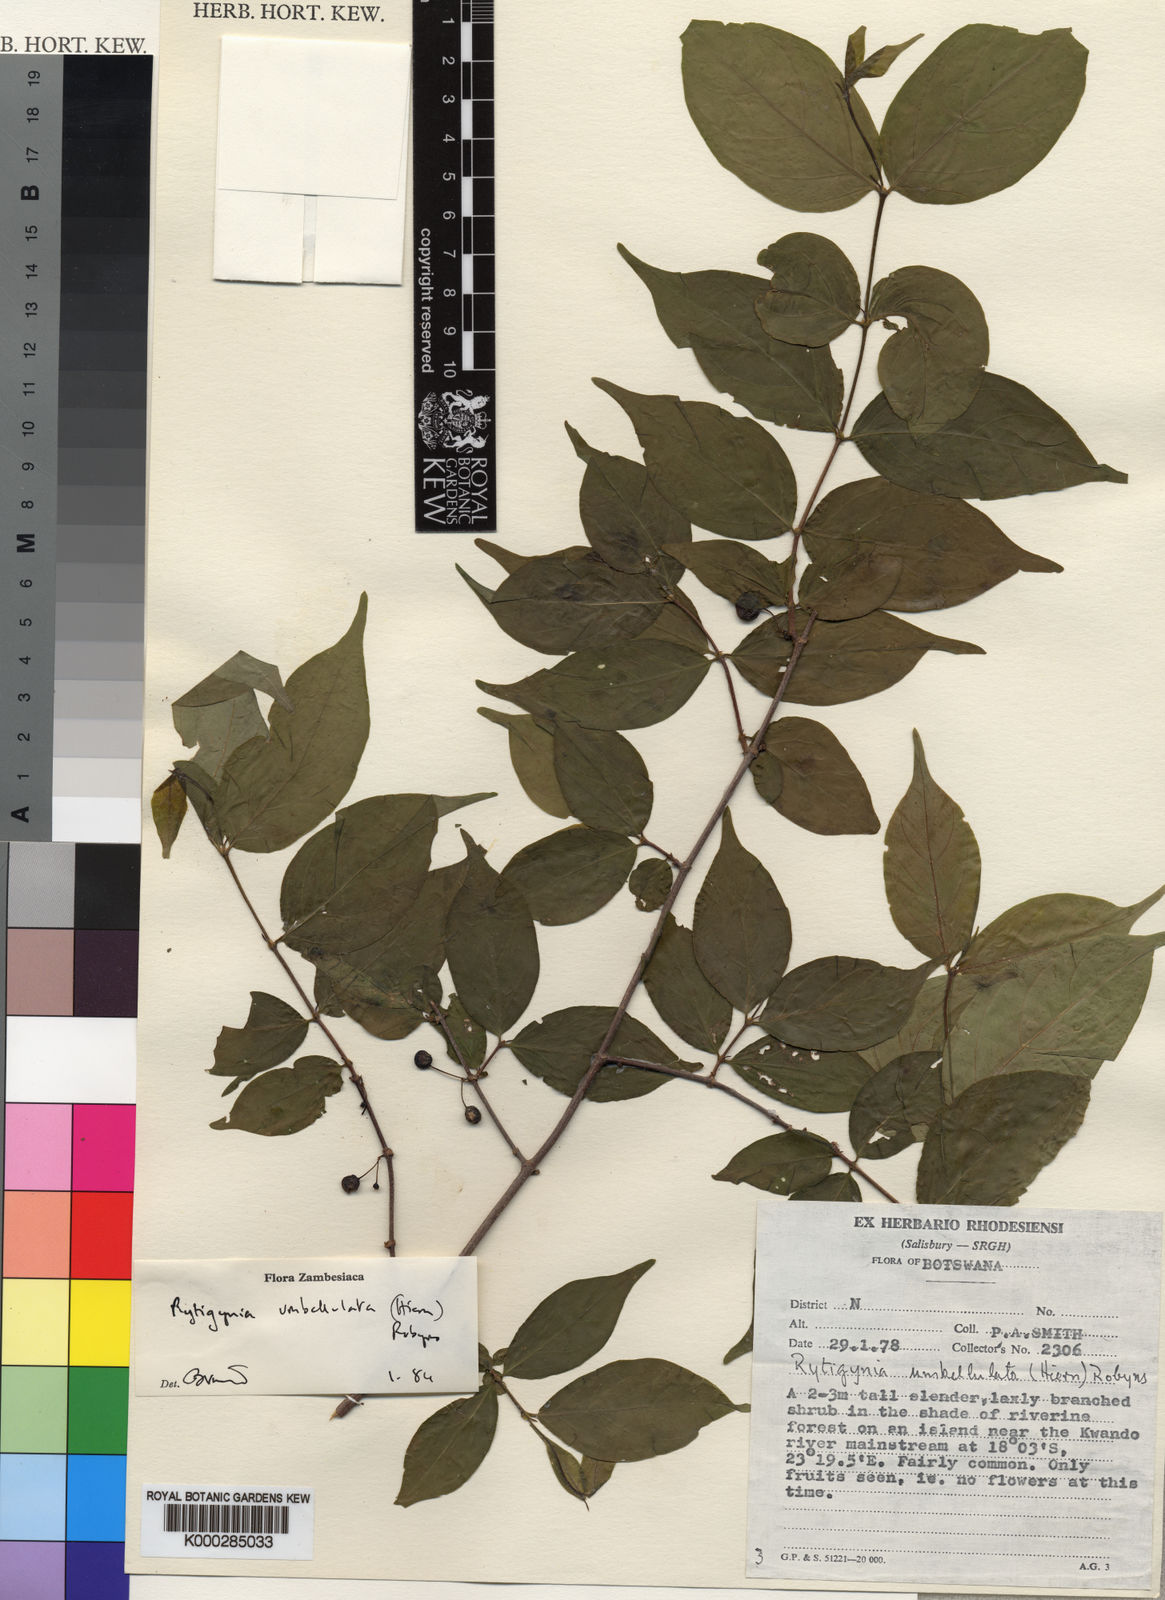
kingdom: Plantae
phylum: Tracheophyta
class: Magnoliopsida
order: Gentianales
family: Rubiaceae
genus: Rytigynia
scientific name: Rytigynia umbellulata
